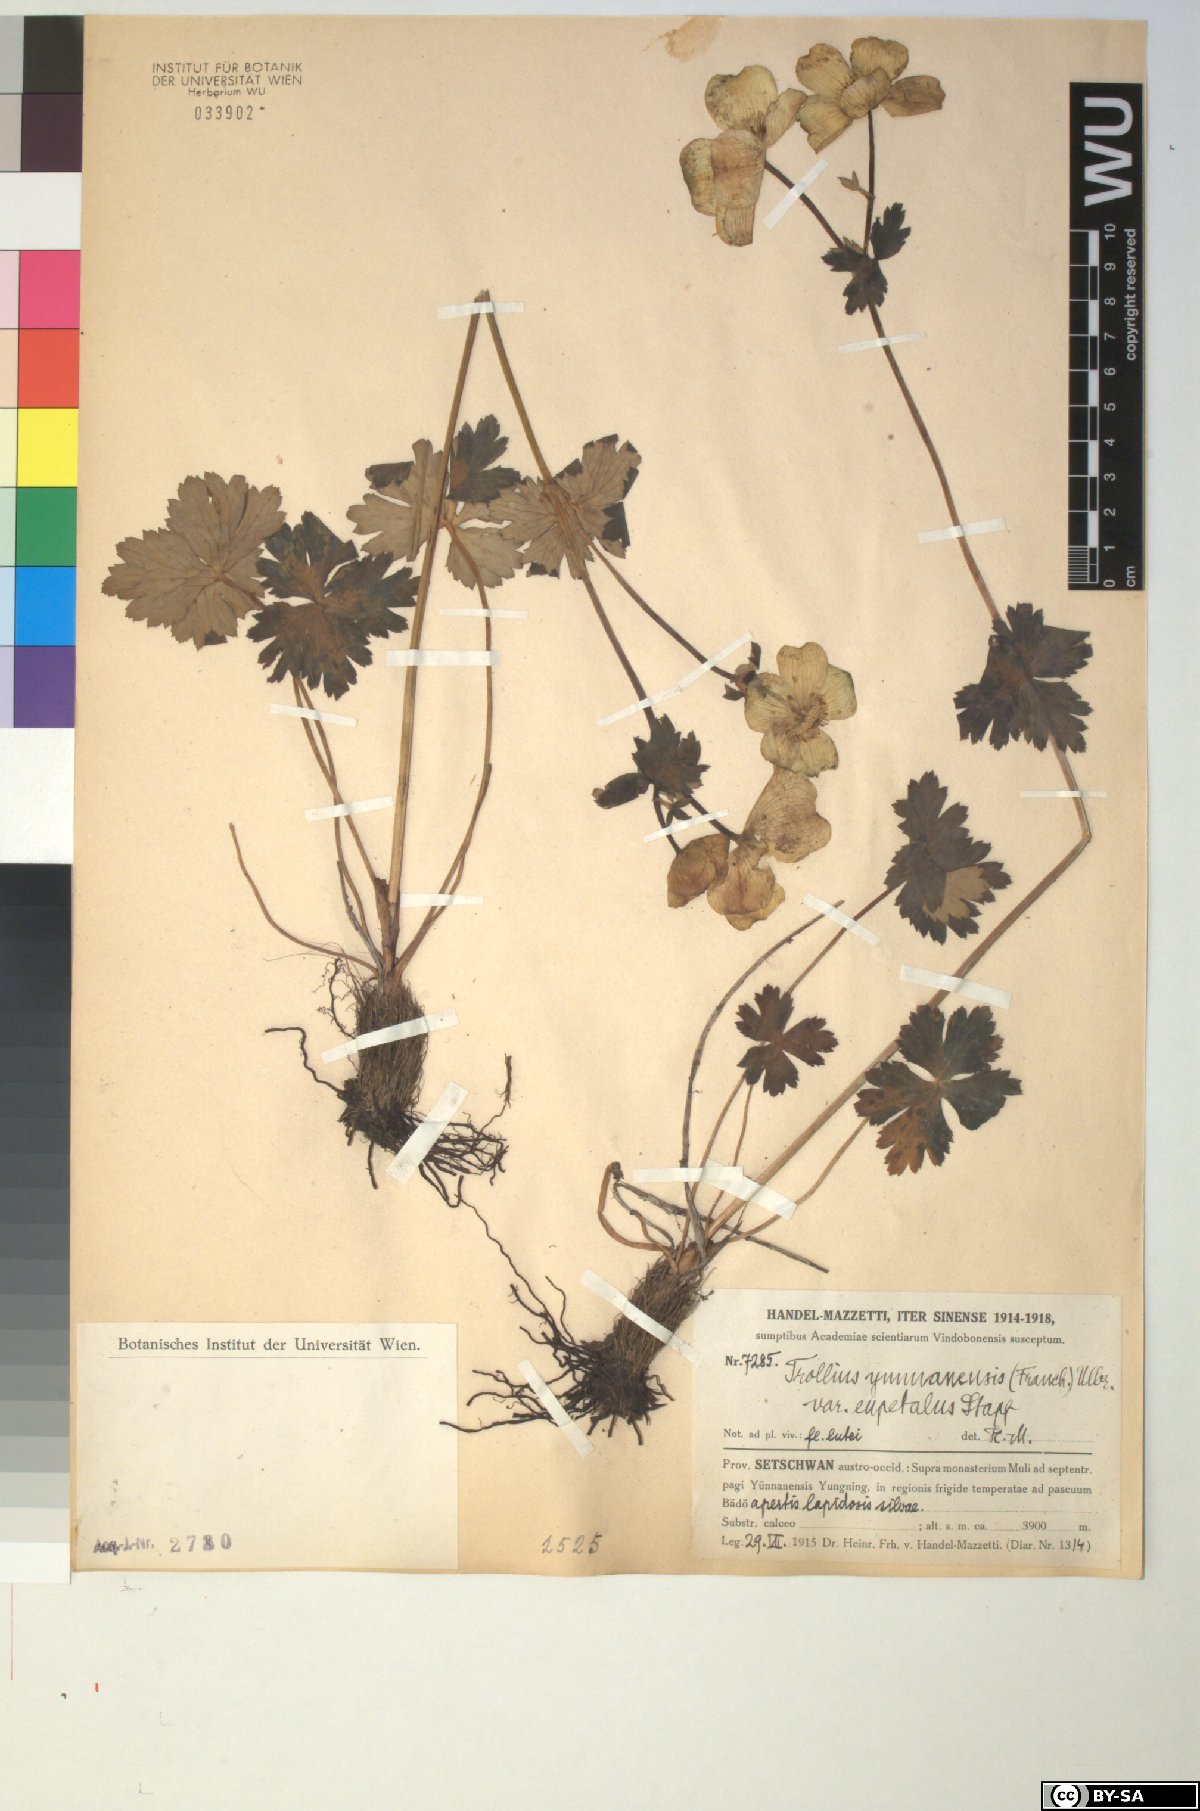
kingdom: Plantae
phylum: Tracheophyta
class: Magnoliopsida
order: Ranunculales
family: Ranunculaceae
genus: Trollius
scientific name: Trollius yunnanensis
